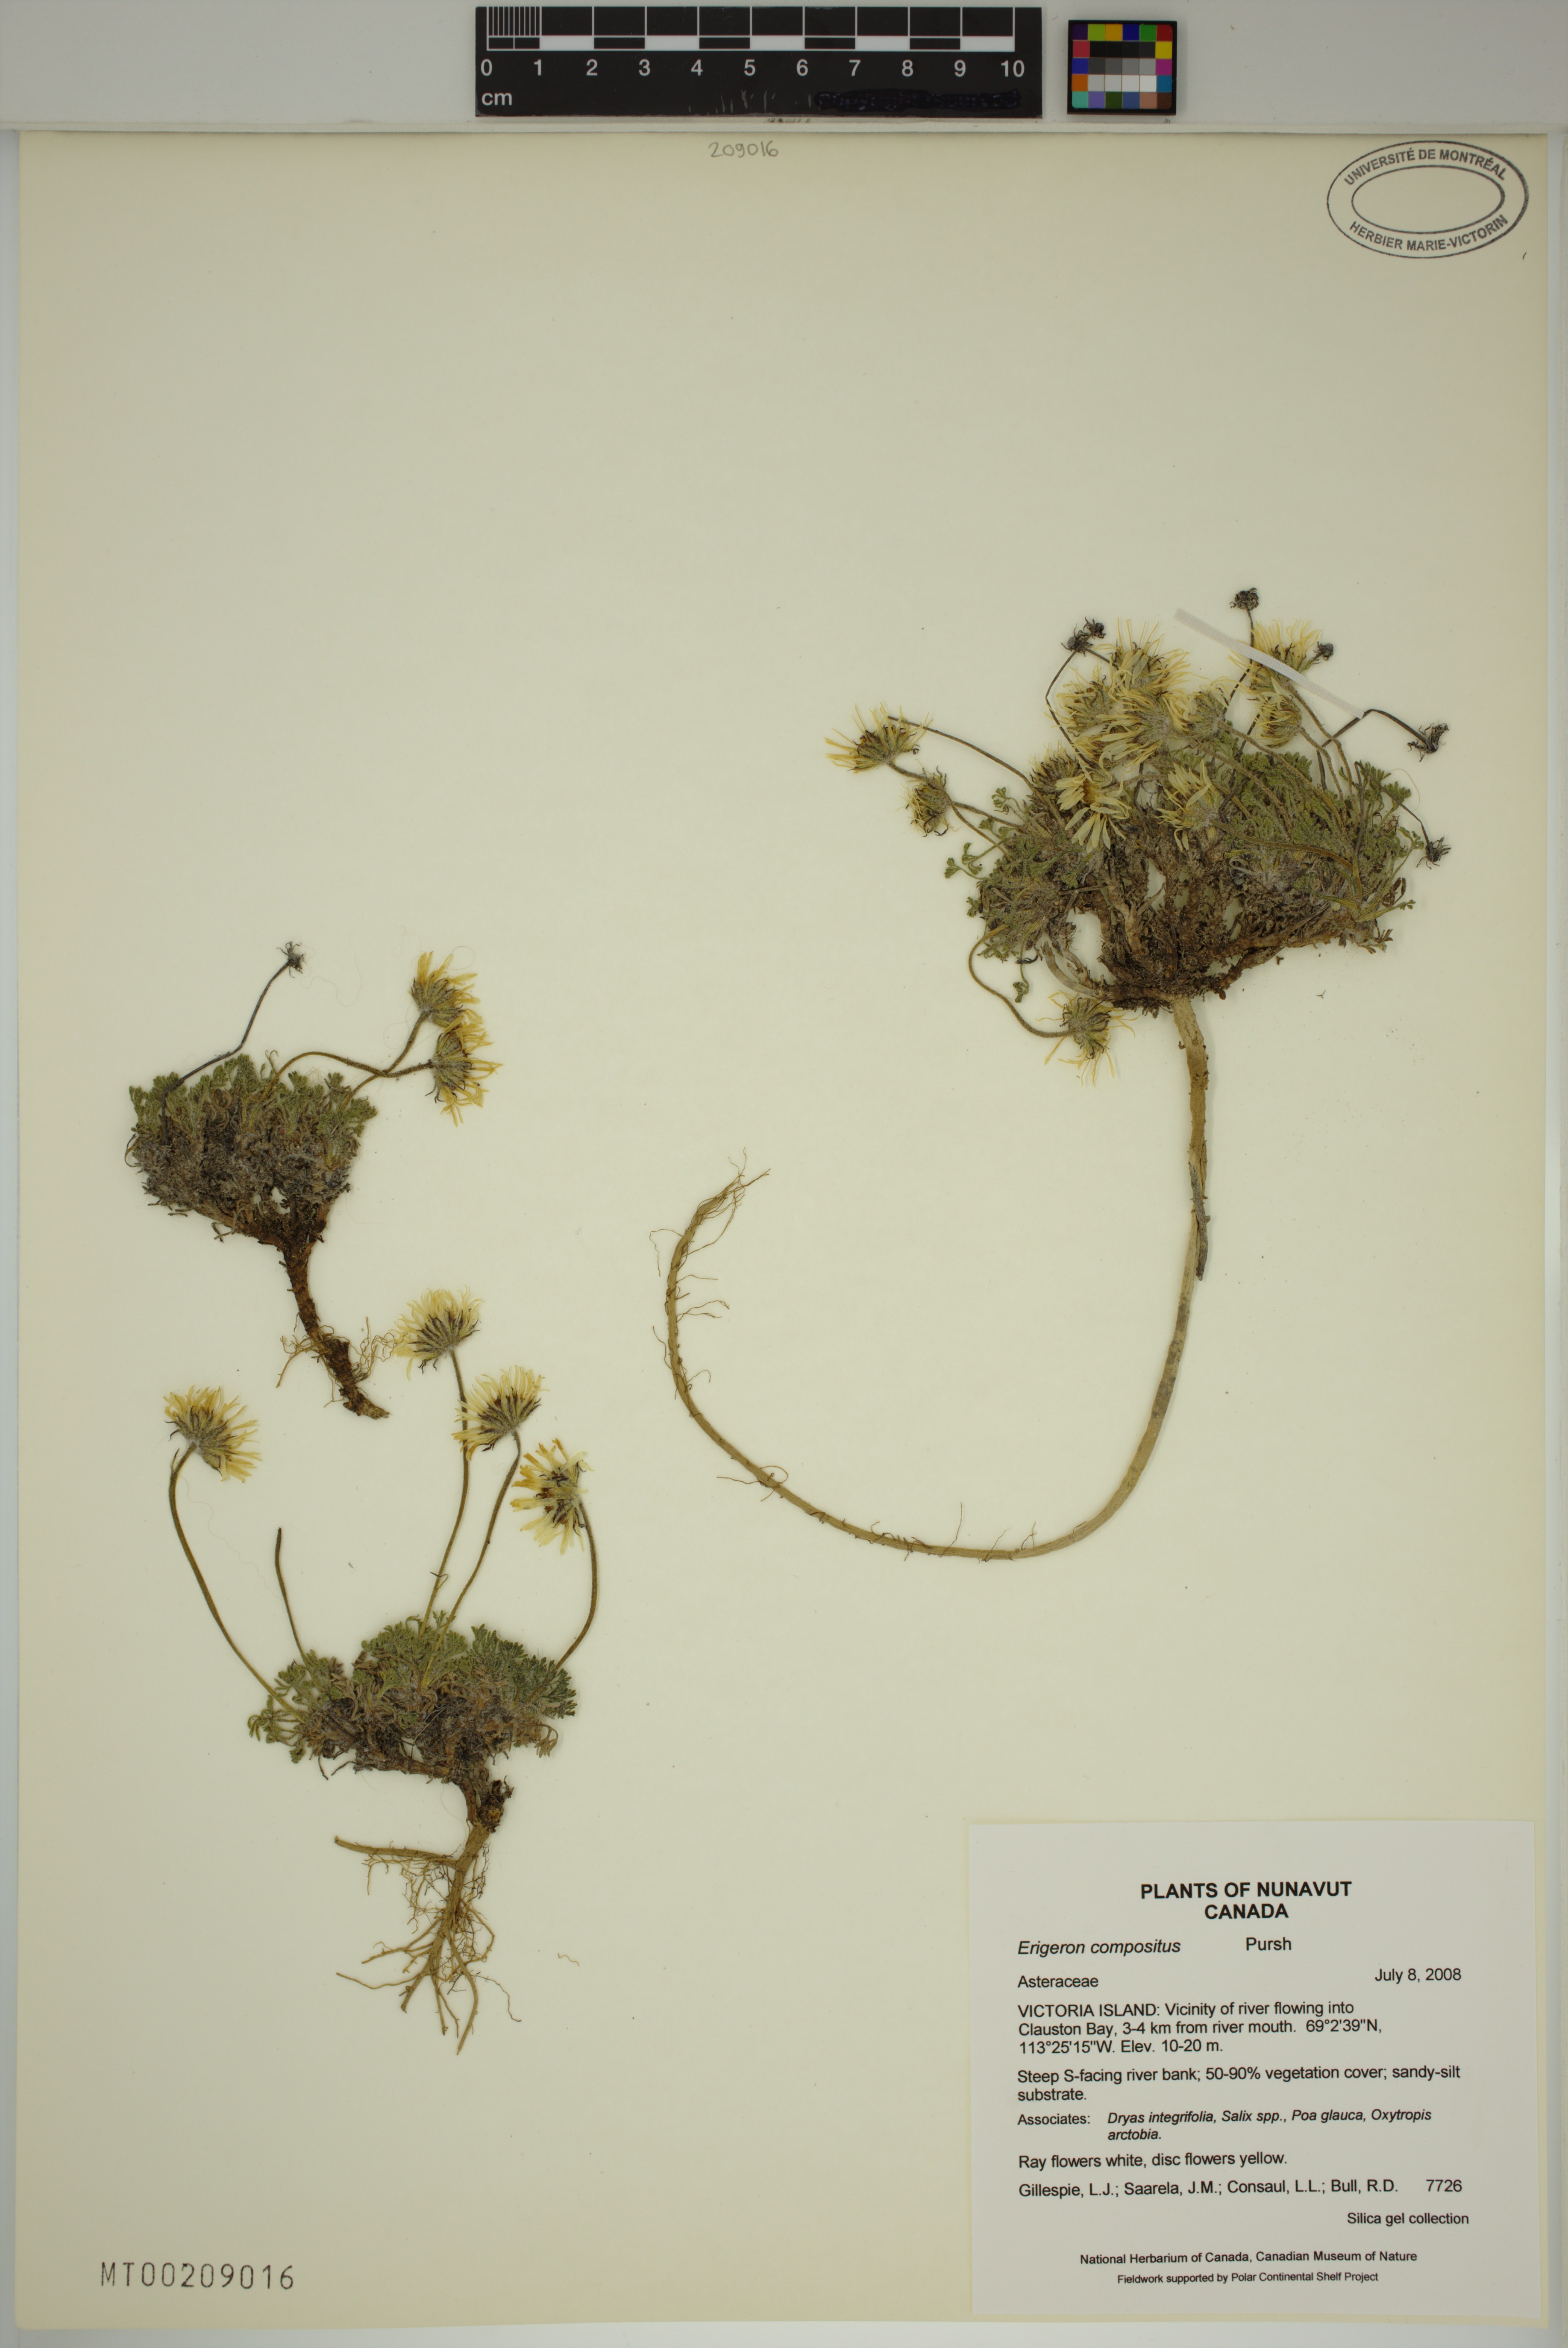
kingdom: Plantae
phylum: Tracheophyta
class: Magnoliopsida
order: Asterales
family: Asteraceae
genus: Erigeron
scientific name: Erigeron compositus
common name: Dwarf mountain fleabane
